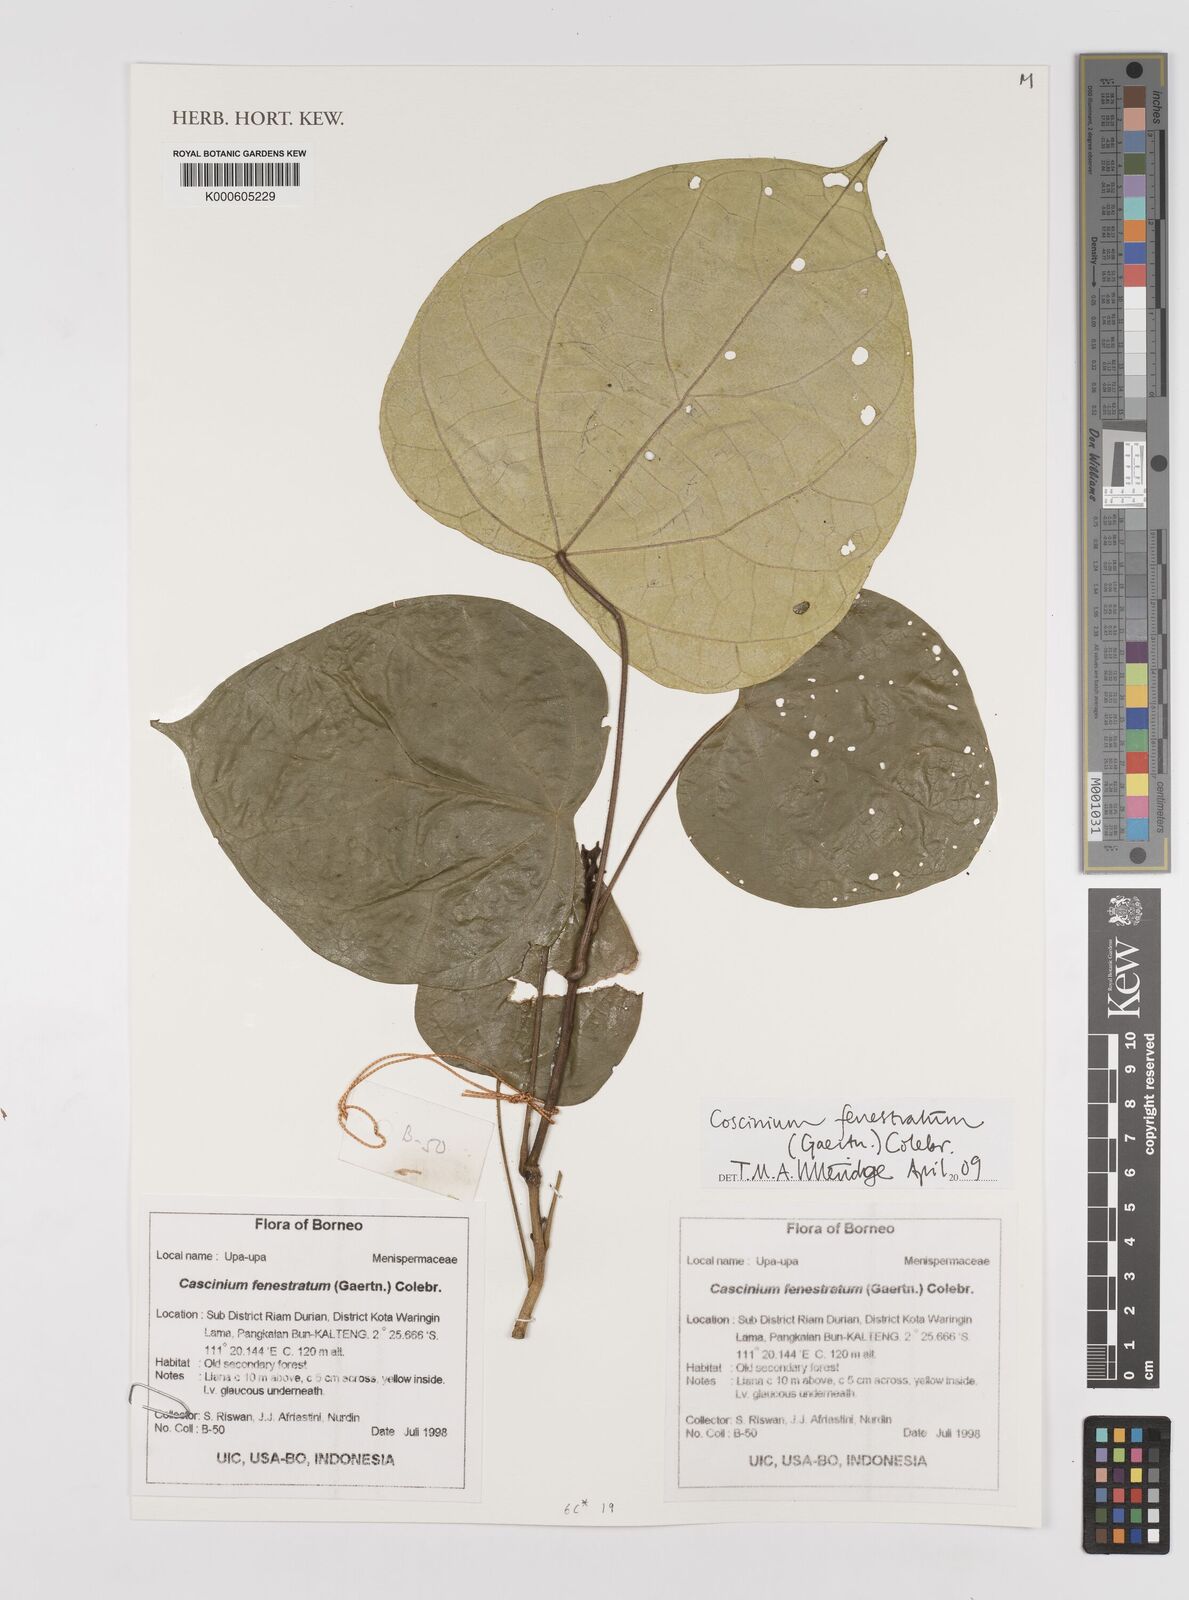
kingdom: Plantae
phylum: Tracheophyta
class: Magnoliopsida
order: Ranunculales
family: Menispermaceae
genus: Coscinium
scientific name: Coscinium fenestratum
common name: False calumba
